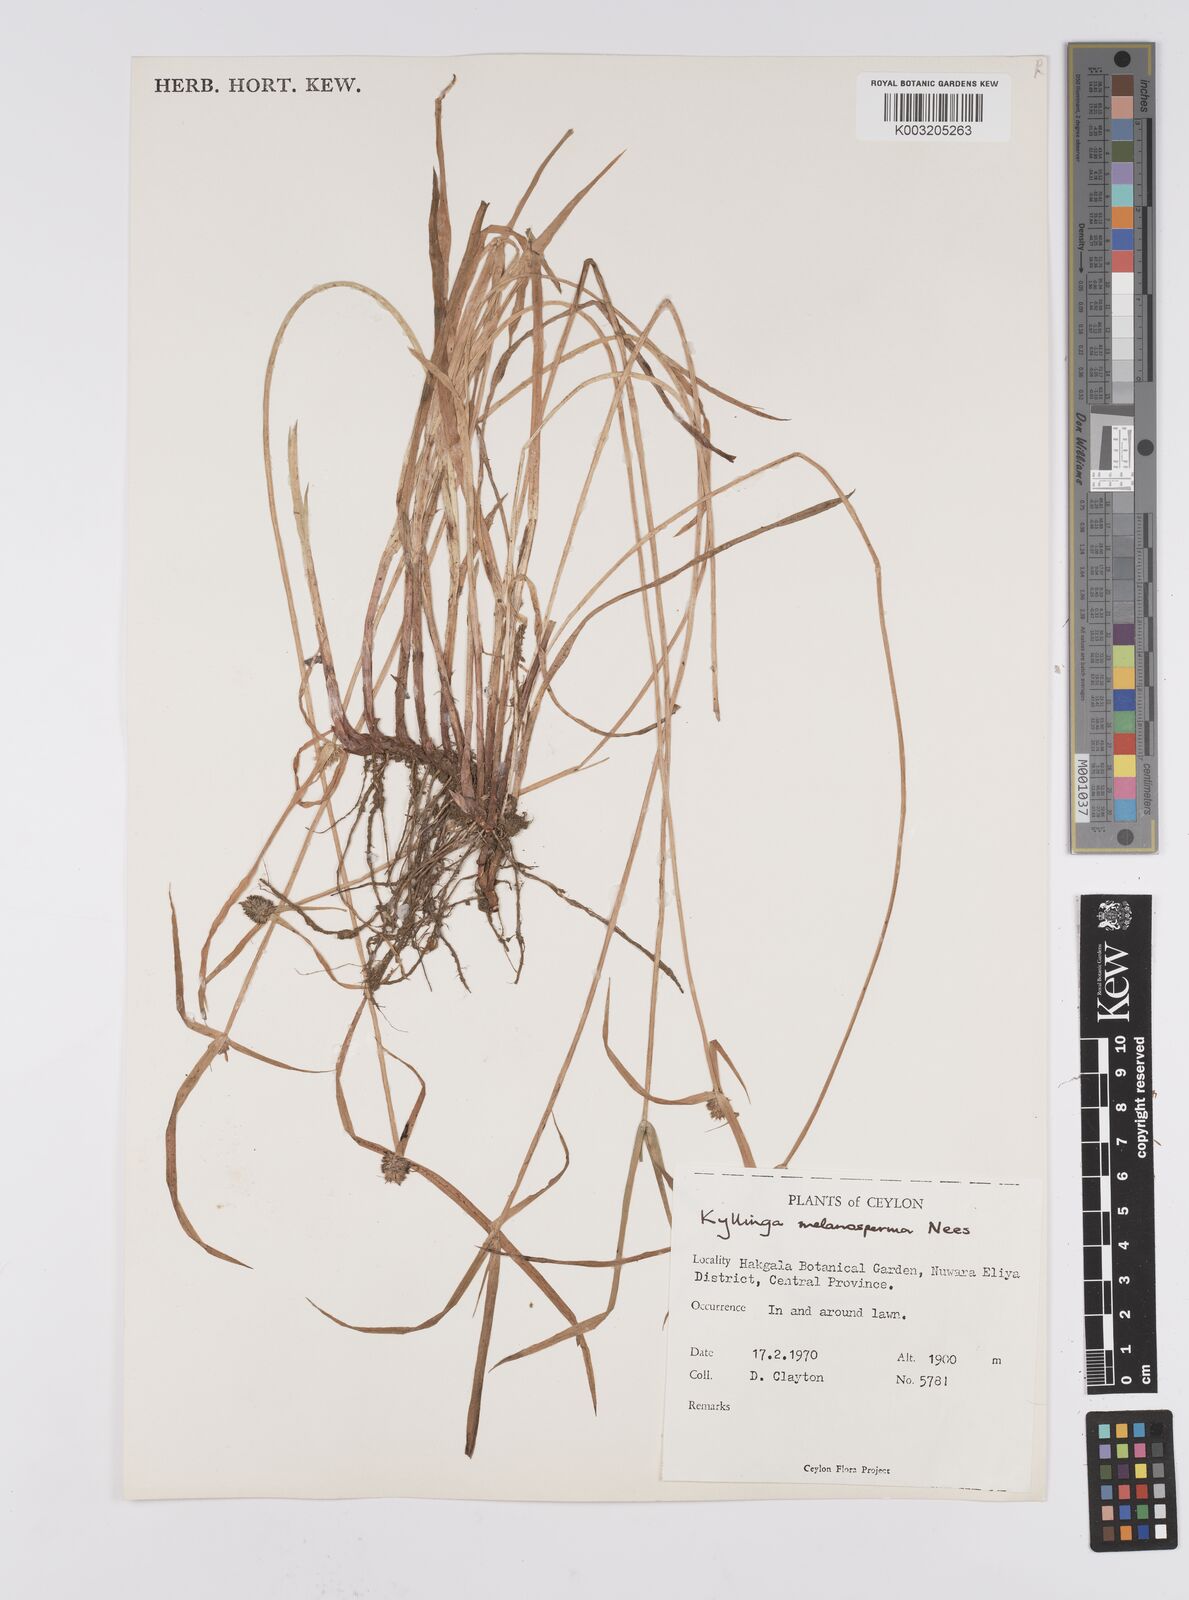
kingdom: Plantae
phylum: Tracheophyta
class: Liliopsida
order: Poales
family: Cyperaceae
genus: Cyperus
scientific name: Cyperus melanospermus
